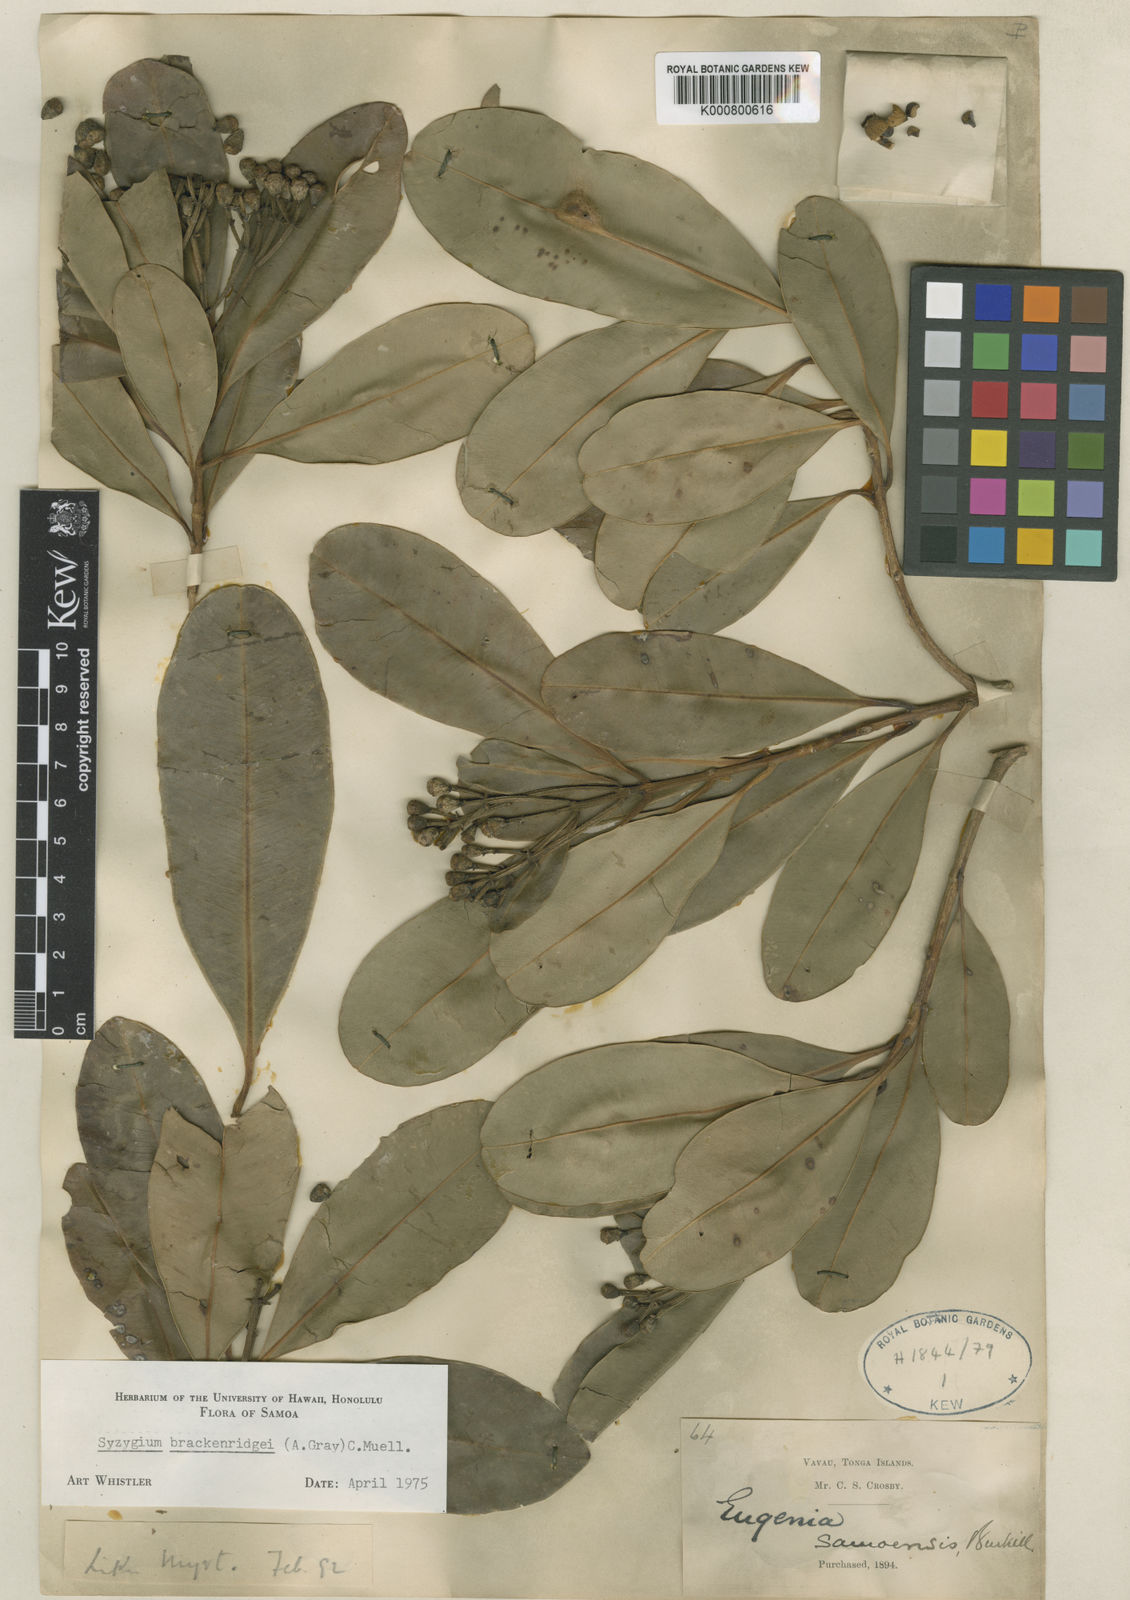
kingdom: Plantae
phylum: Tracheophyta
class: Magnoliopsida
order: Myrtales
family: Myrtaceae
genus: Syzygium
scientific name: Syzygium
